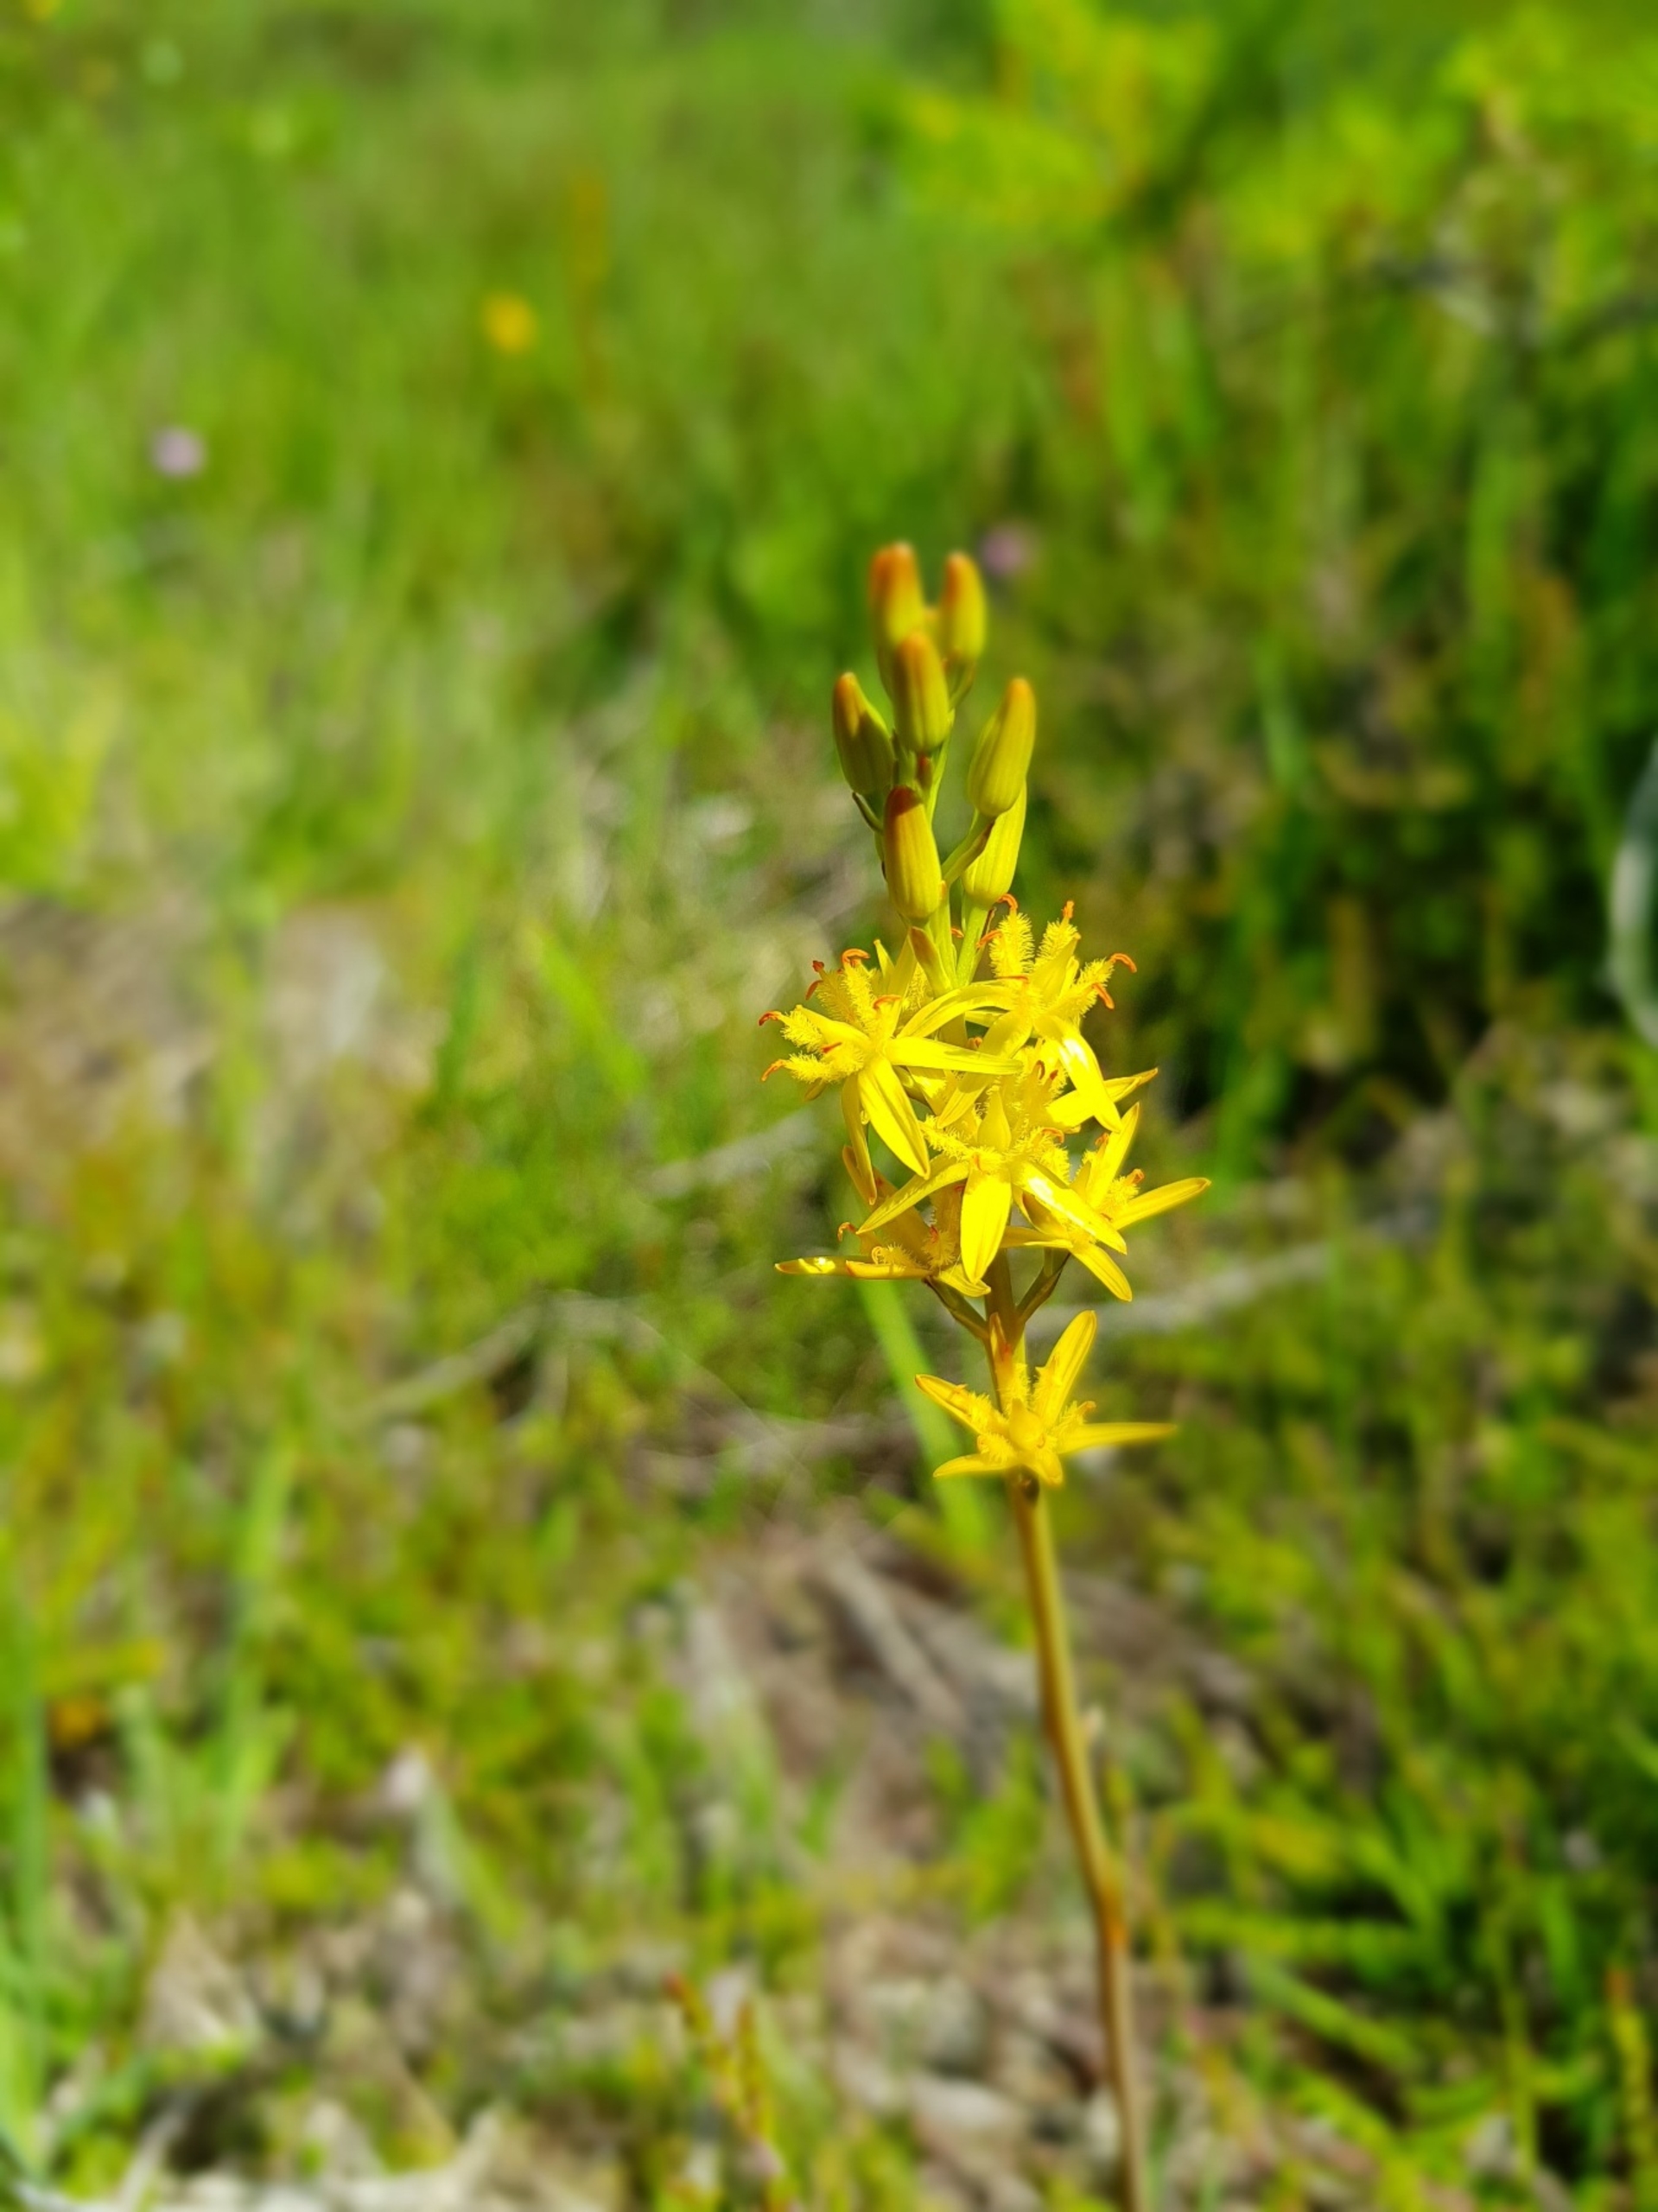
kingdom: Plantae
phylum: Tracheophyta
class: Liliopsida
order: Dioscoreales
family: Nartheciaceae
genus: Narthecium
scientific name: Narthecium ossifragum
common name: Benbræk
